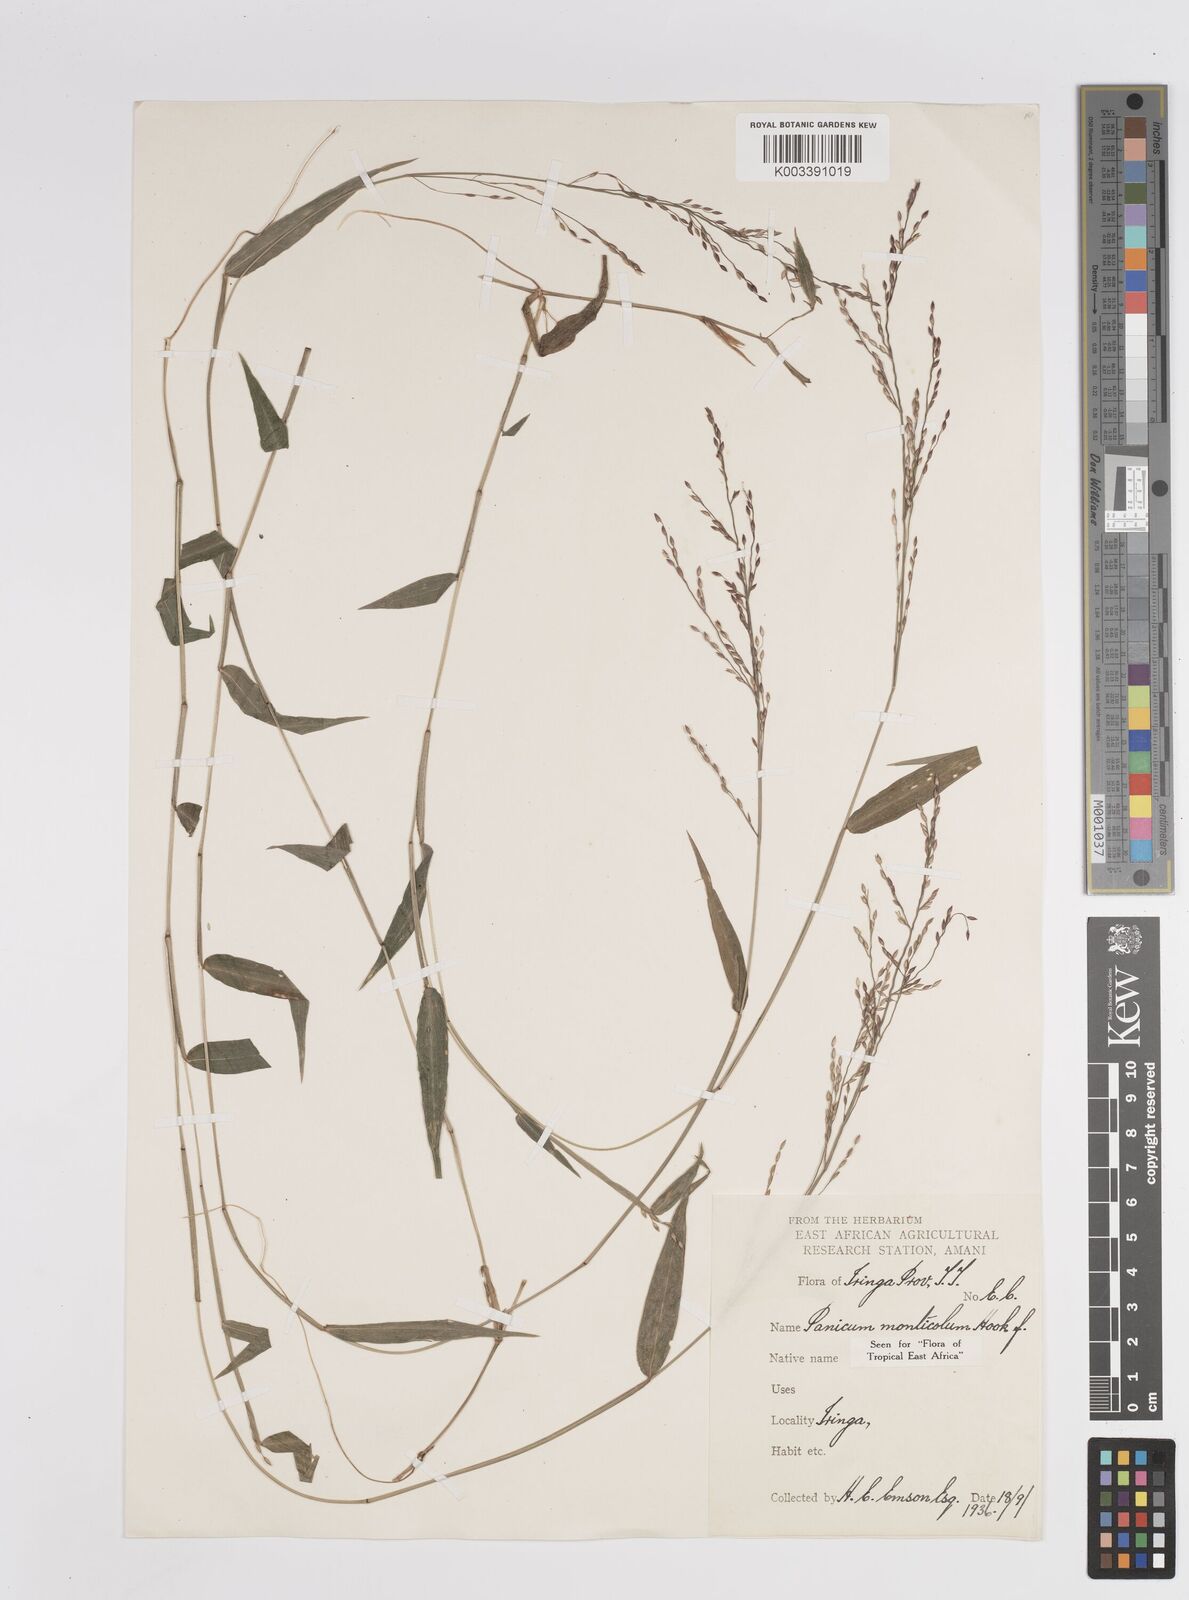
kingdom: Plantae
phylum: Tracheophyta
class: Liliopsida
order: Poales
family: Poaceae
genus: Panicum
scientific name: Panicum monticola
